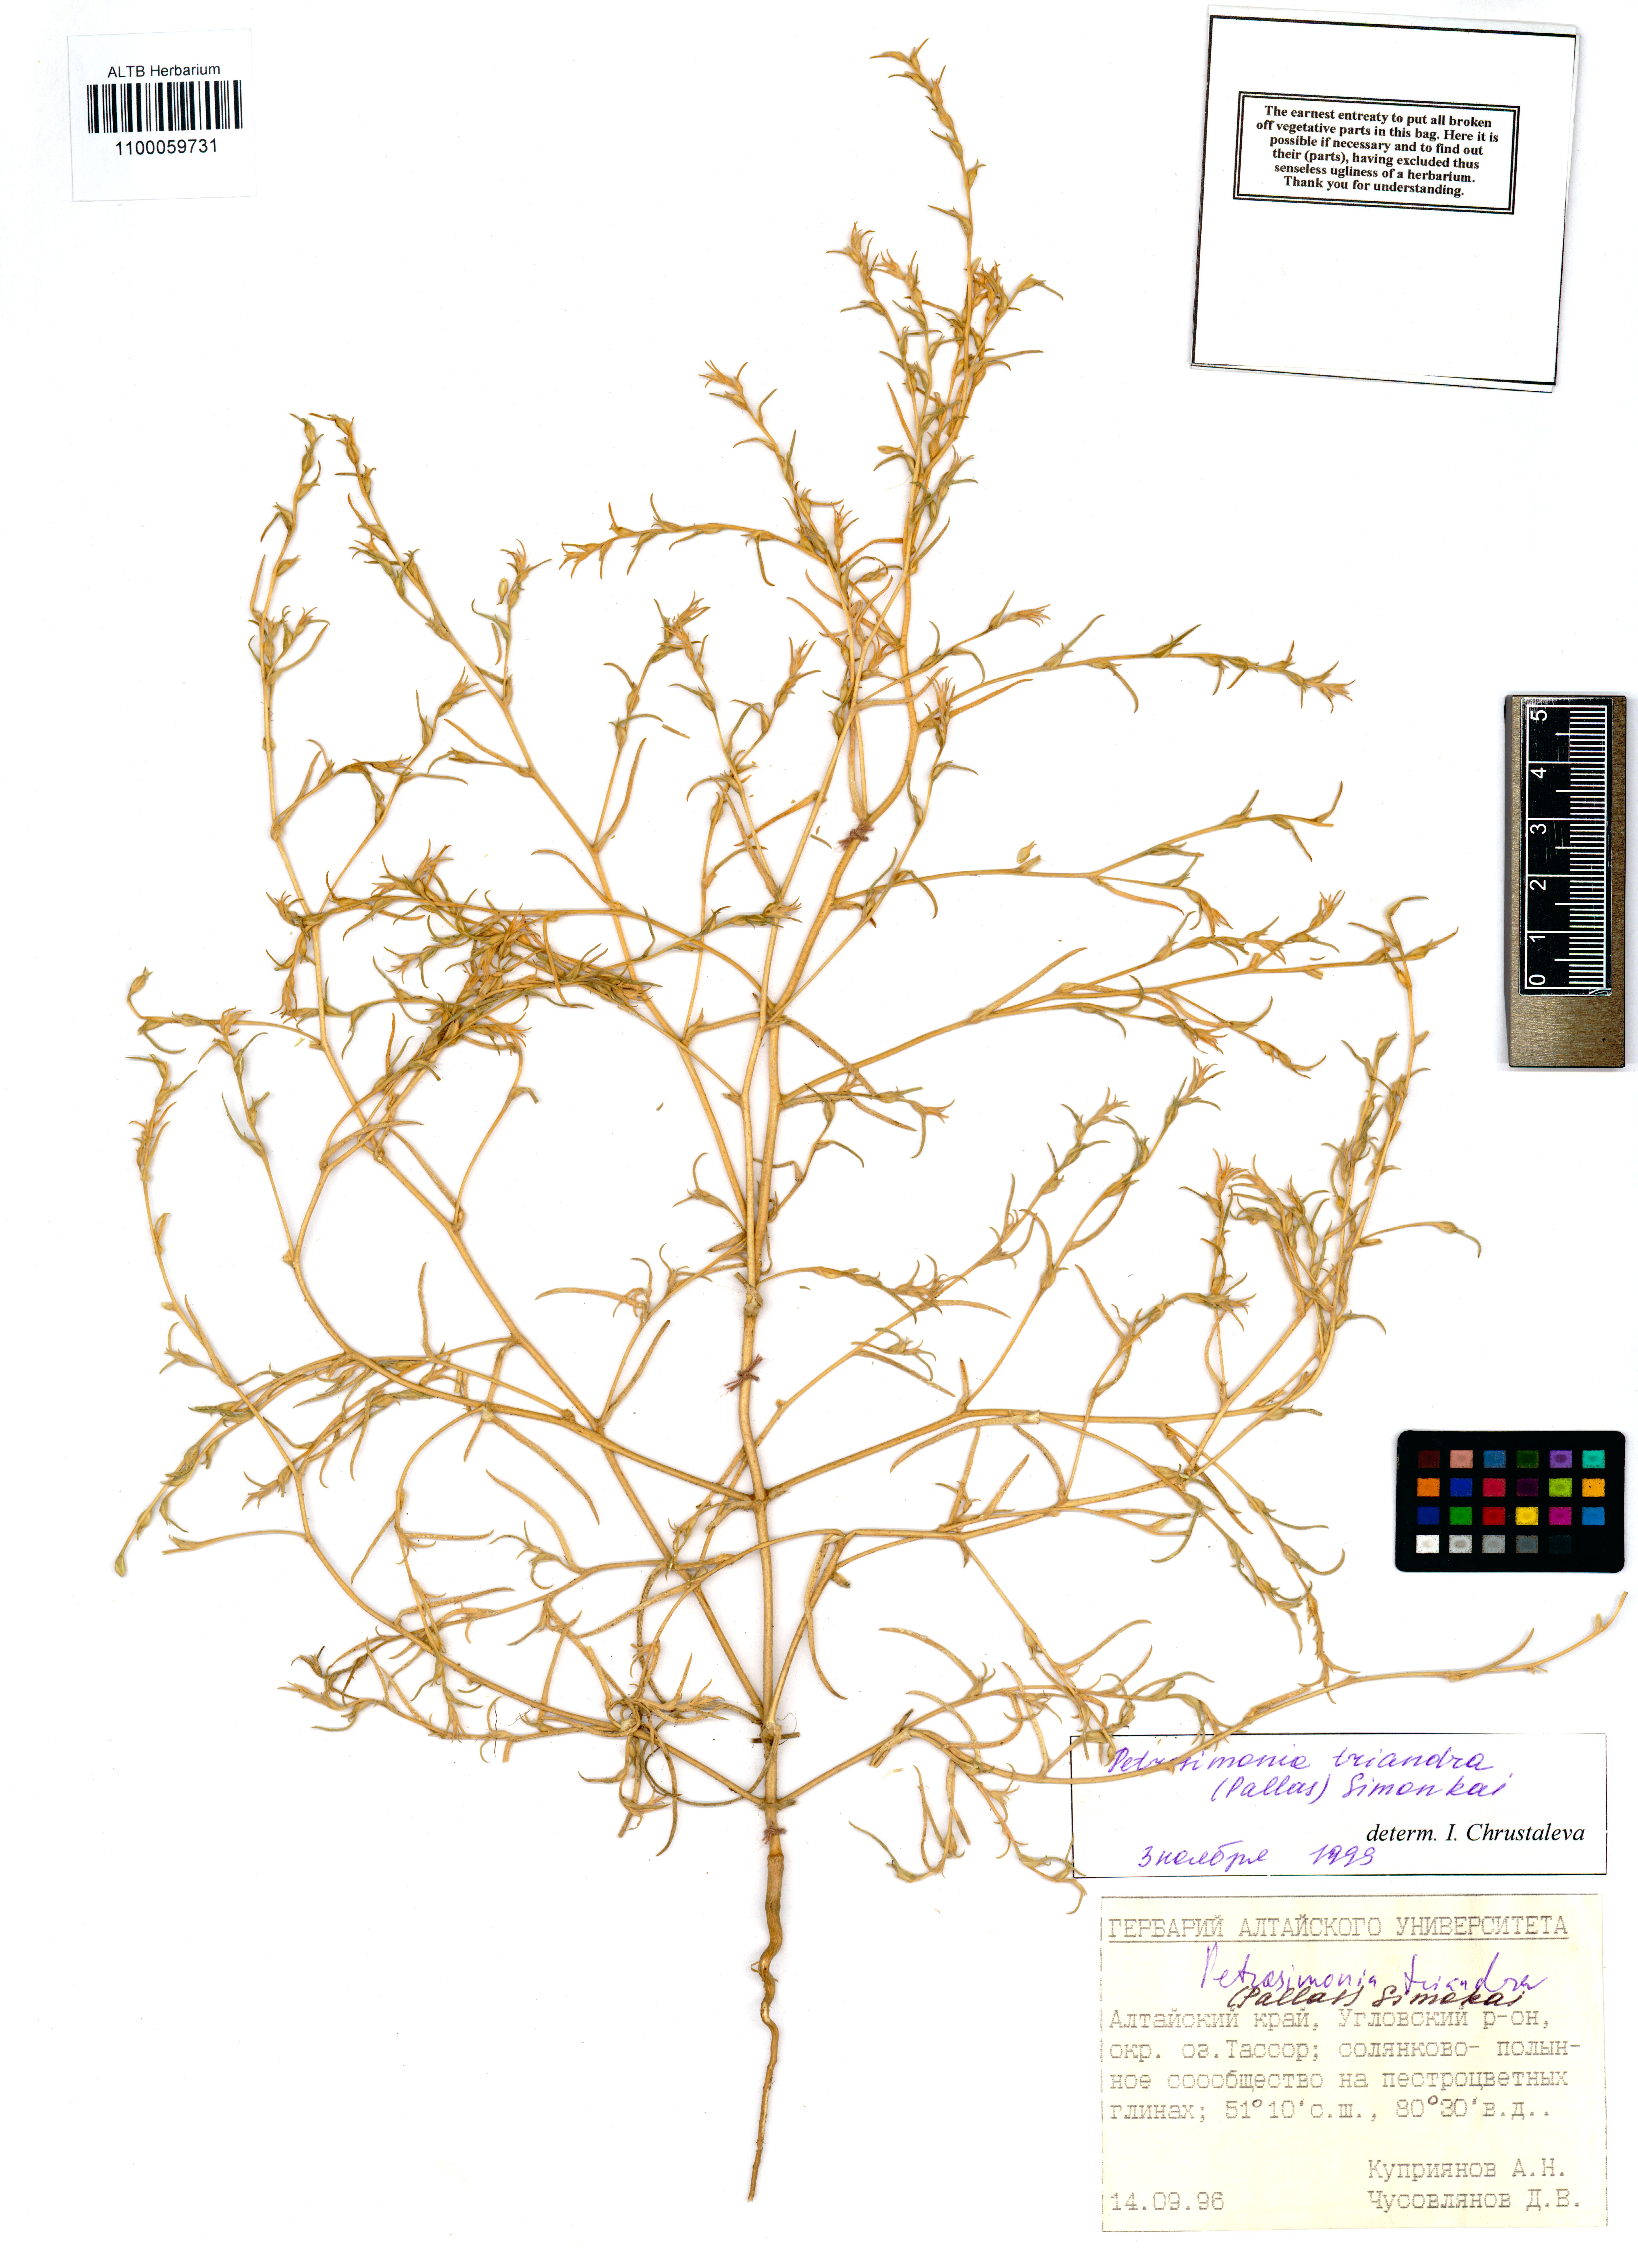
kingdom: Plantae
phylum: Tracheophyta
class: Magnoliopsida
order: Caryophyllales
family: Amaranthaceae
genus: Petrosimonia
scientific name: Petrosimonia triandra
